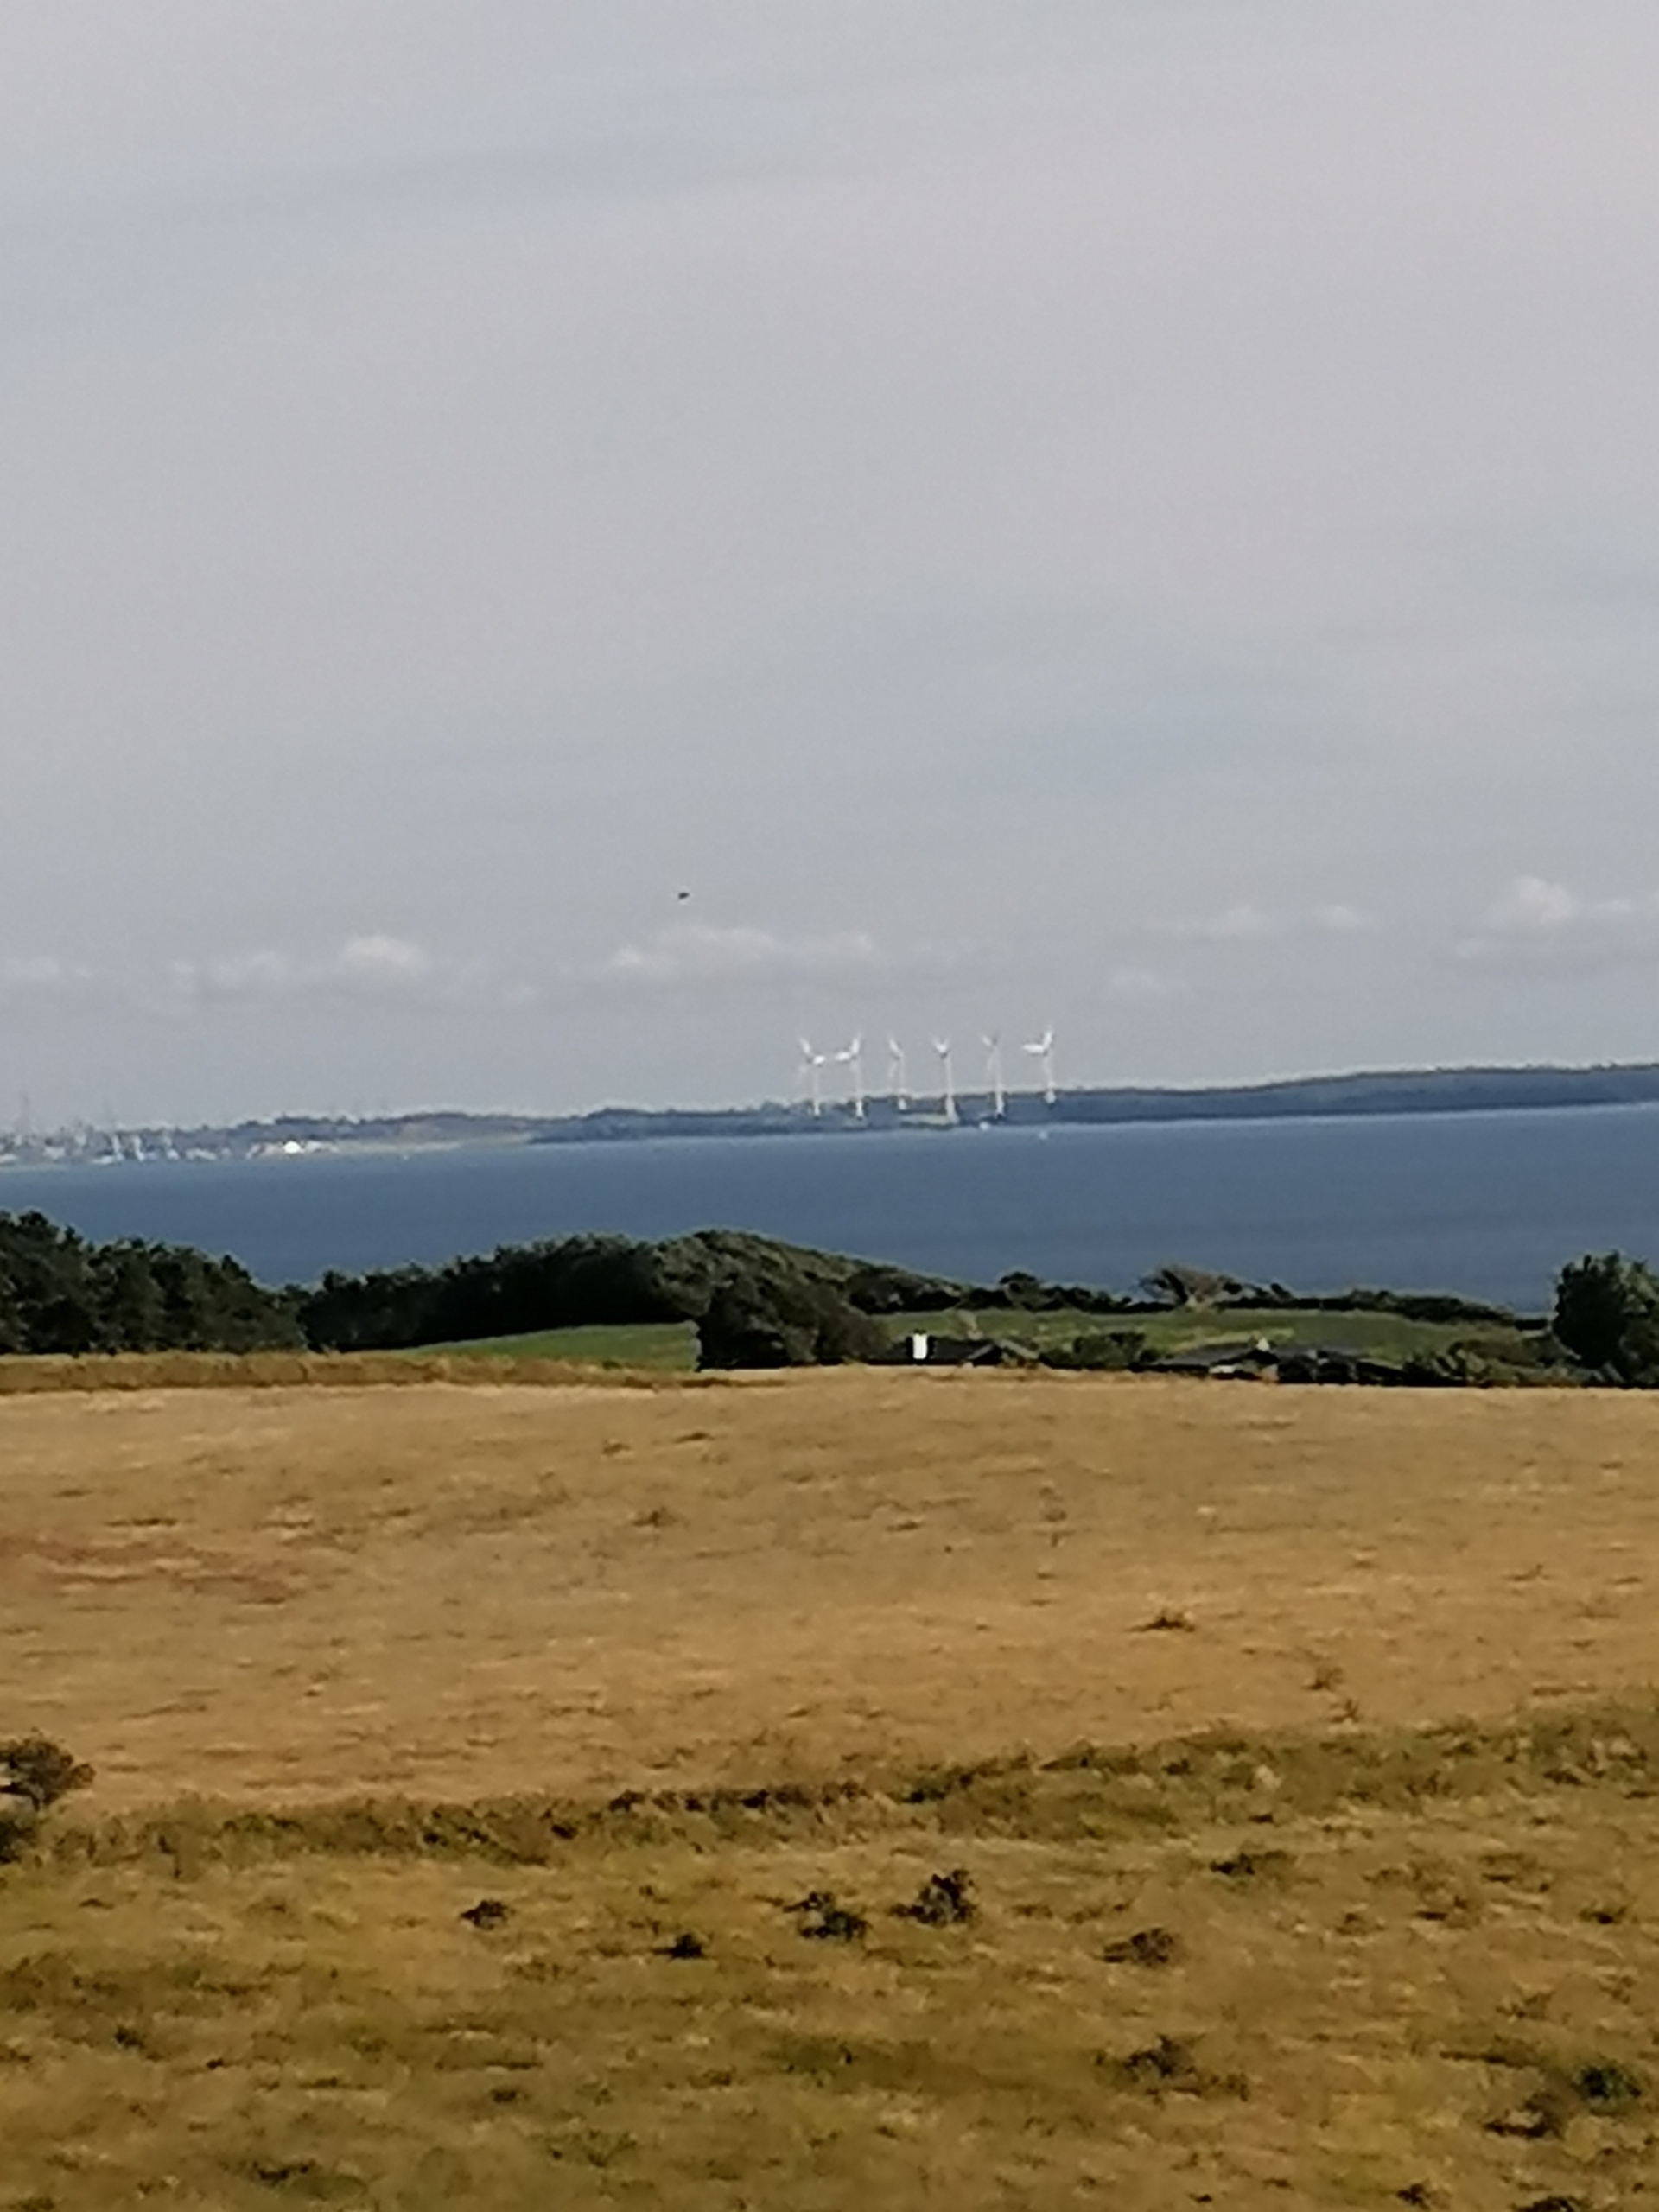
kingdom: Animalia
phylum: Chordata
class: Aves
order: Falconiformes
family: Falconidae
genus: Falco
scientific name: Falco tinnunculus
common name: Tårnfalk
